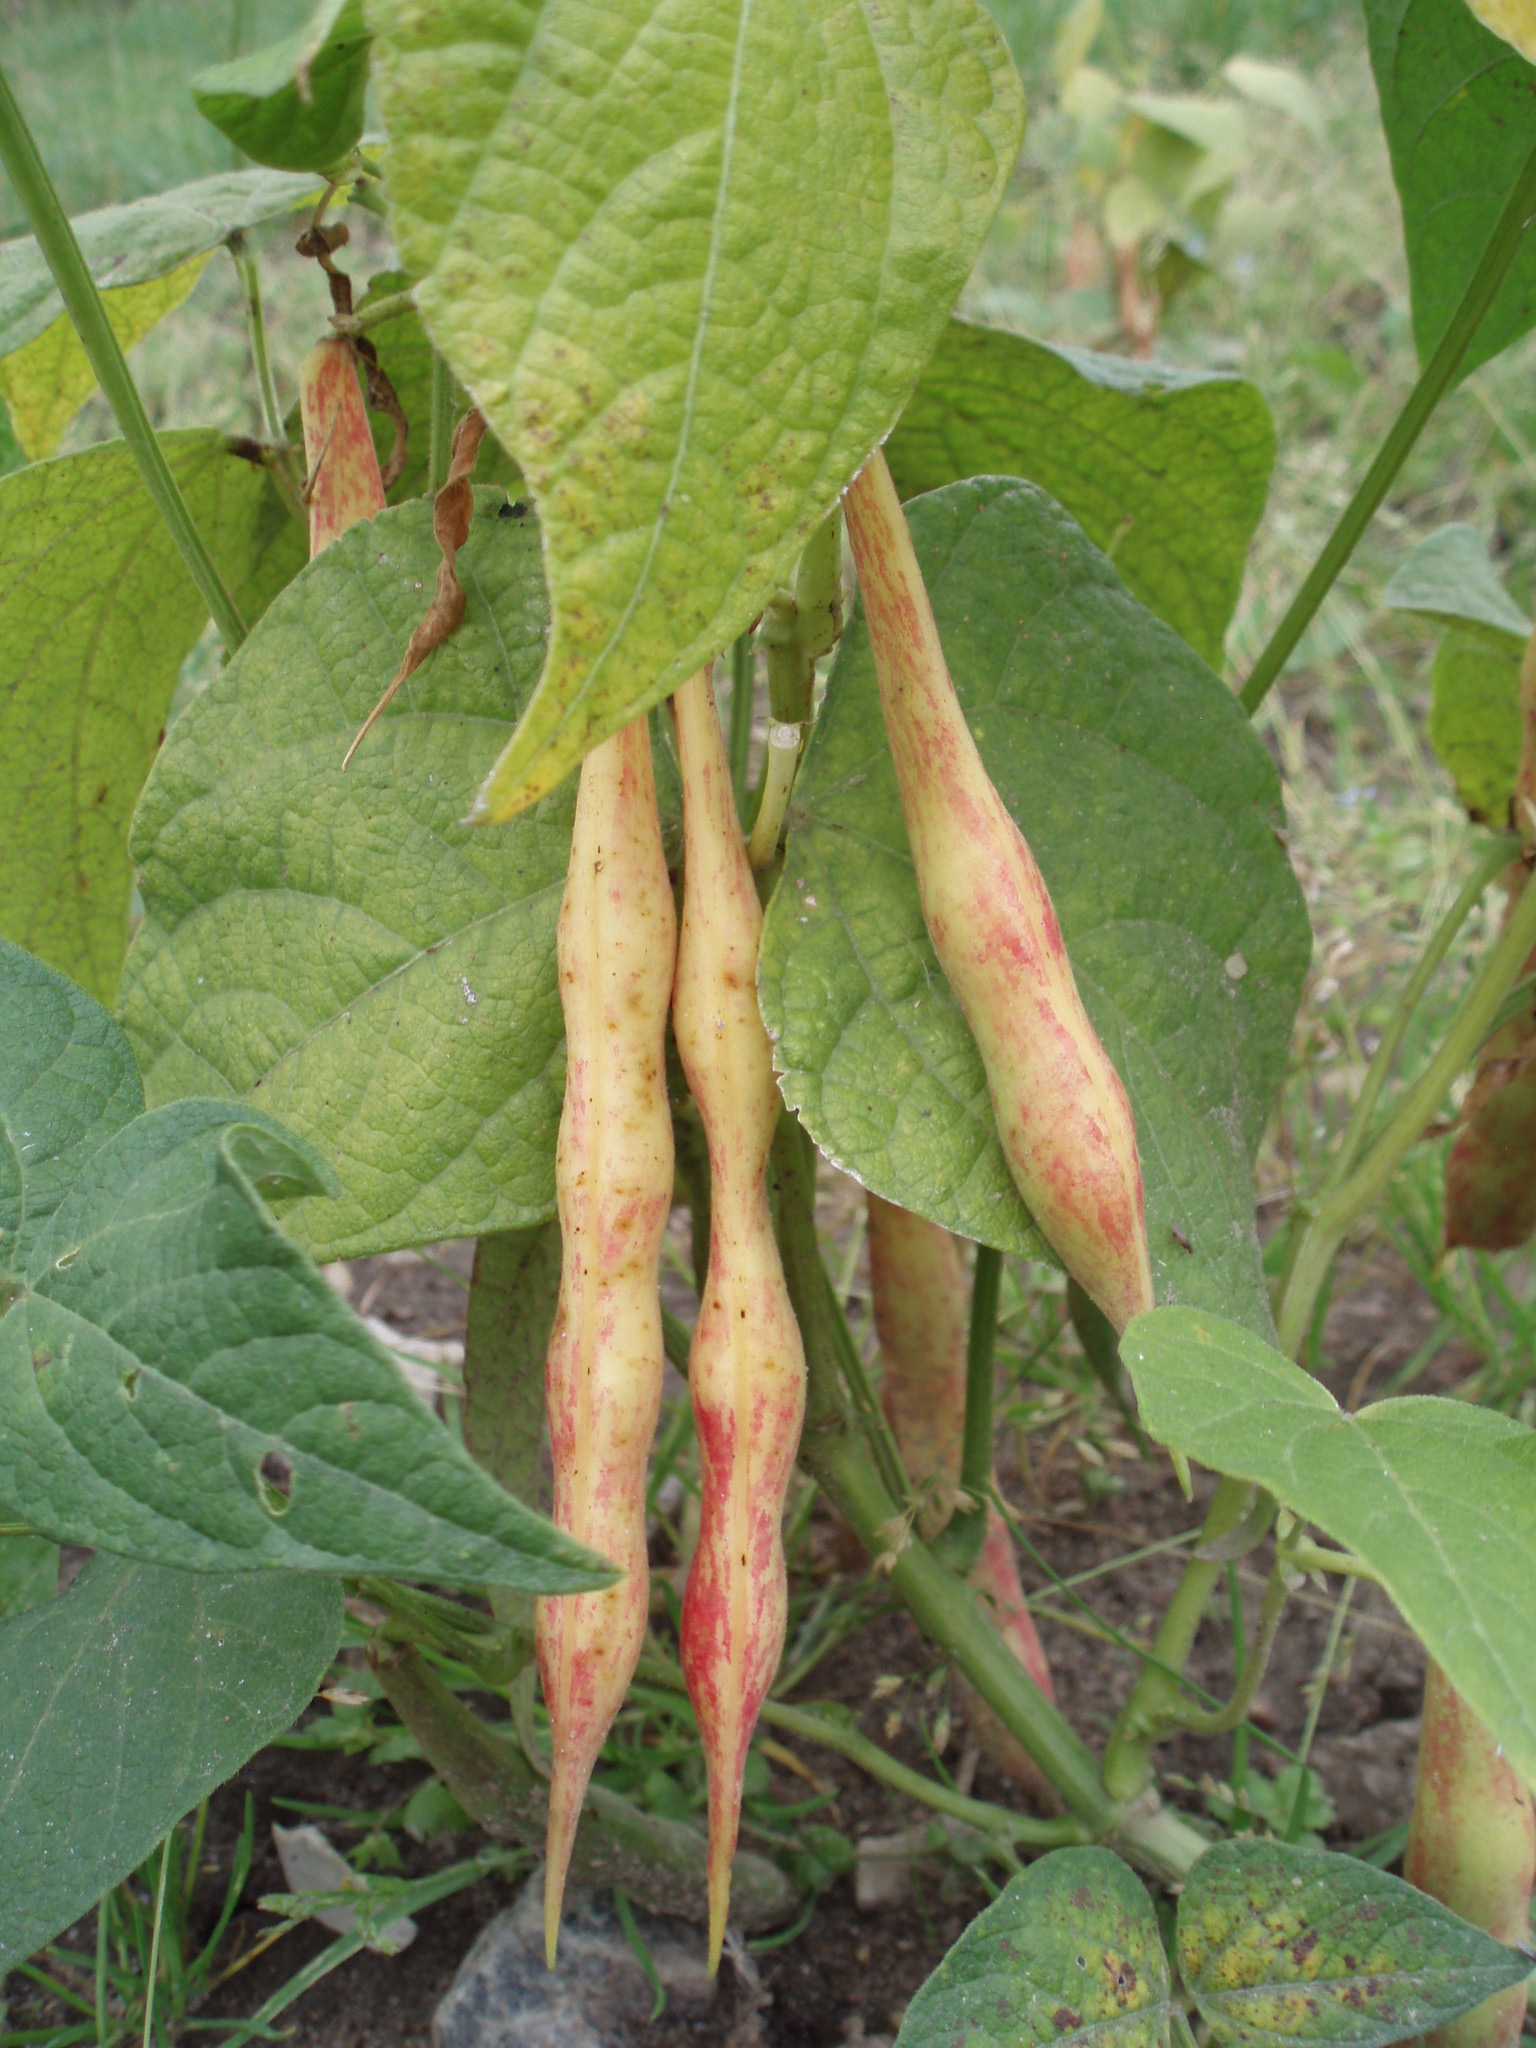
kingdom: Plantae
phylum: Tracheophyta
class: Magnoliopsida
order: Fabales
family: Fabaceae
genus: Phaseolus
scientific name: Phaseolus vulgaris
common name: Bean
